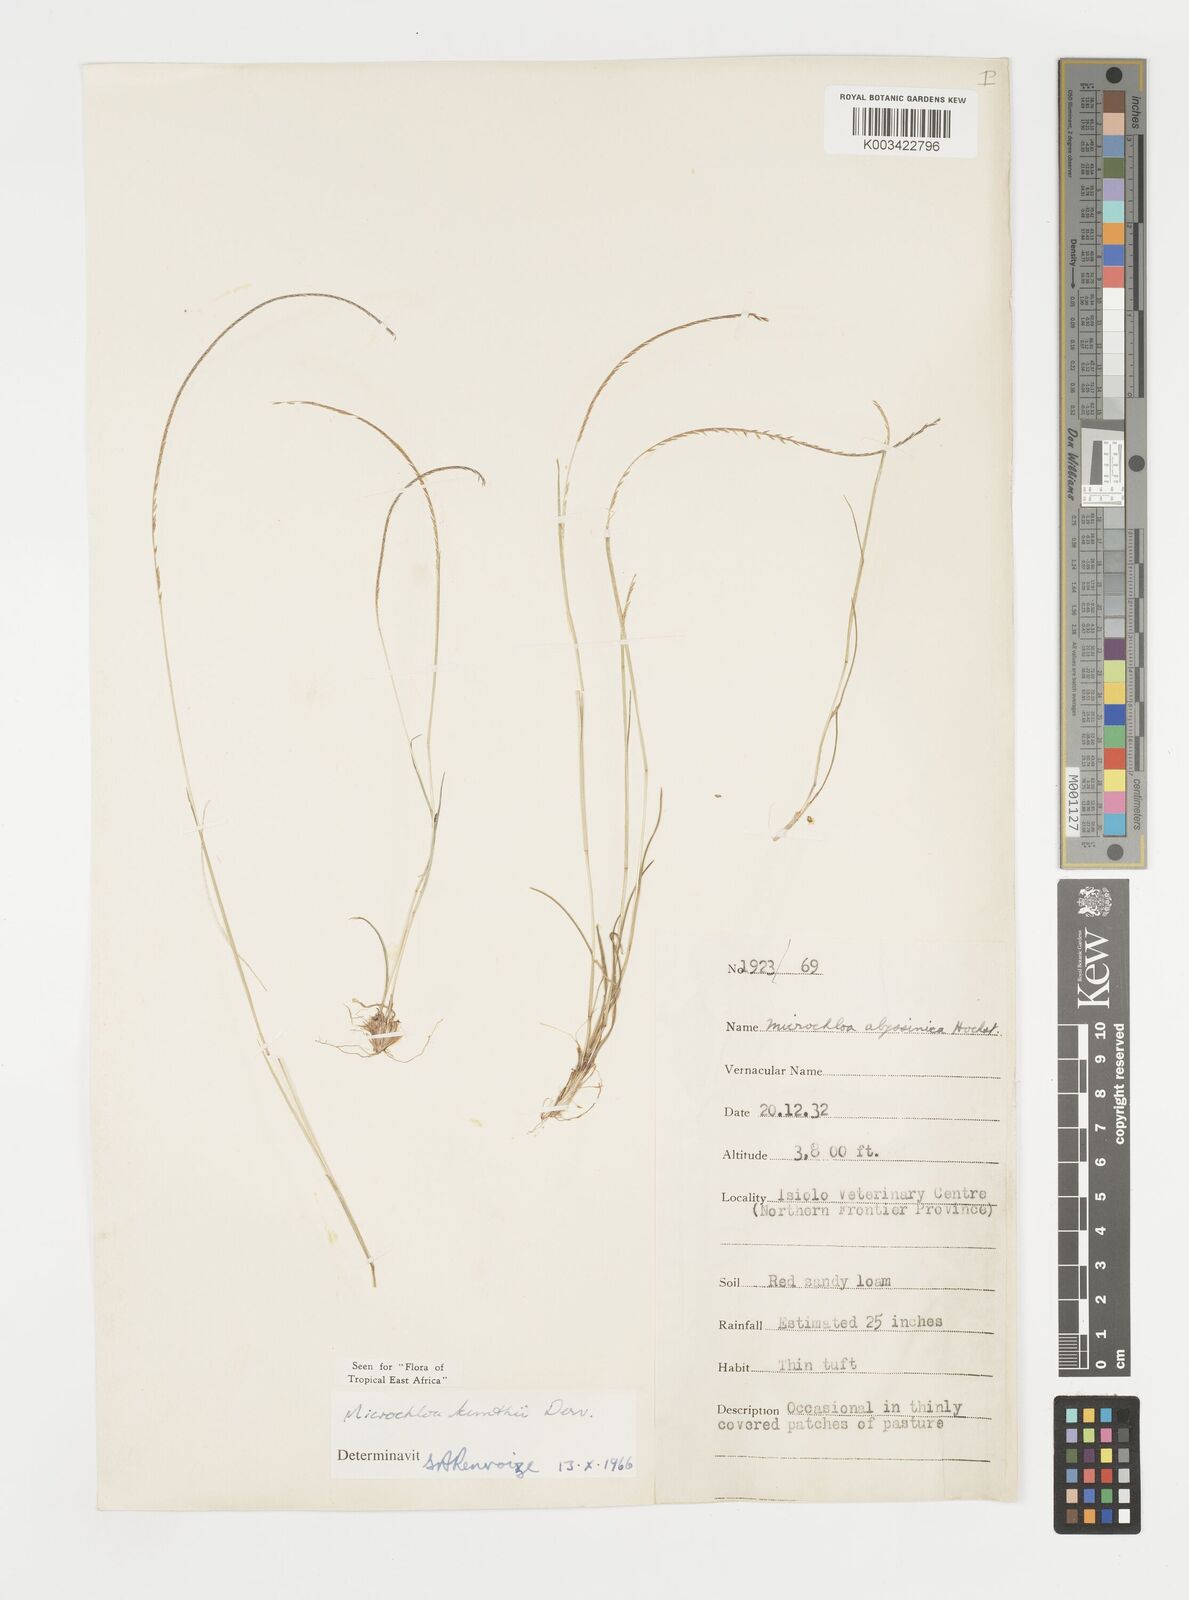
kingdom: Plantae
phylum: Tracheophyta
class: Liliopsida
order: Poales
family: Poaceae
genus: Microchloa
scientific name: Microchloa kunthii
